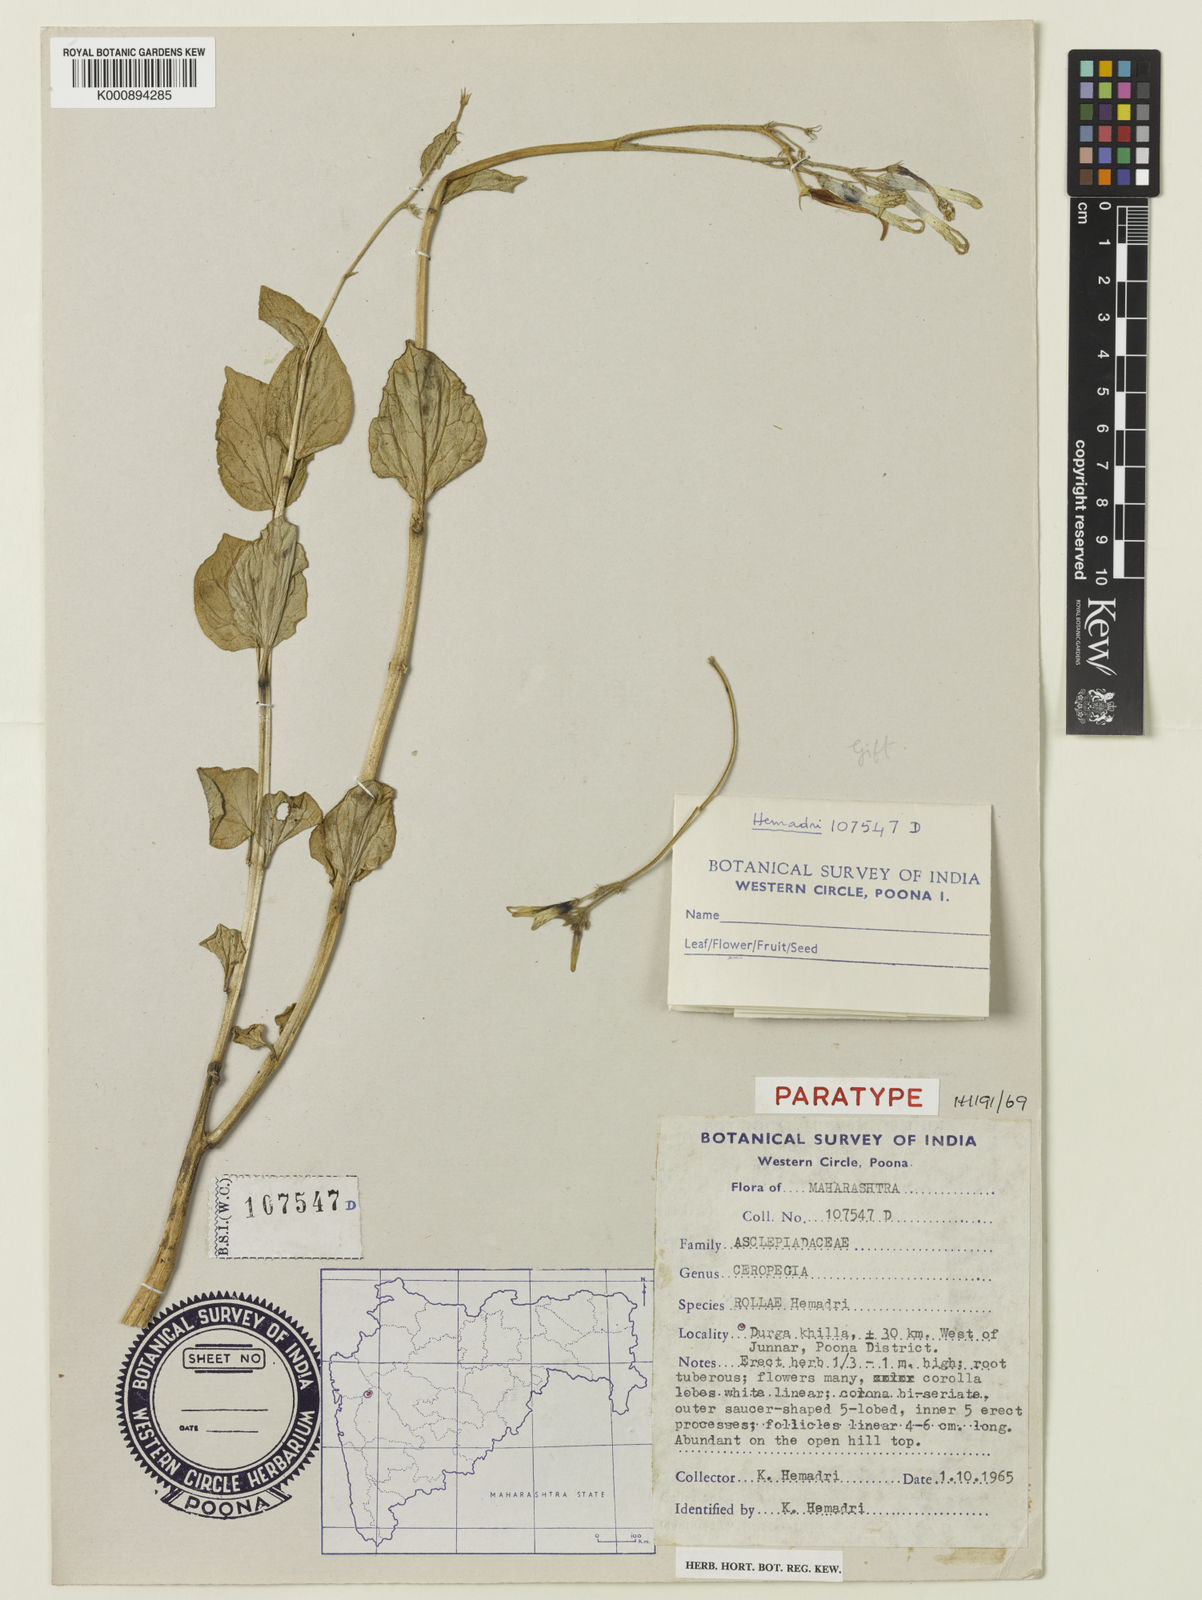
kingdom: Plantae
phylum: Tracheophyta
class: Magnoliopsida
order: Gentianales
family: Apocynaceae
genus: Ceropegia
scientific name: Ceropegia lawii
